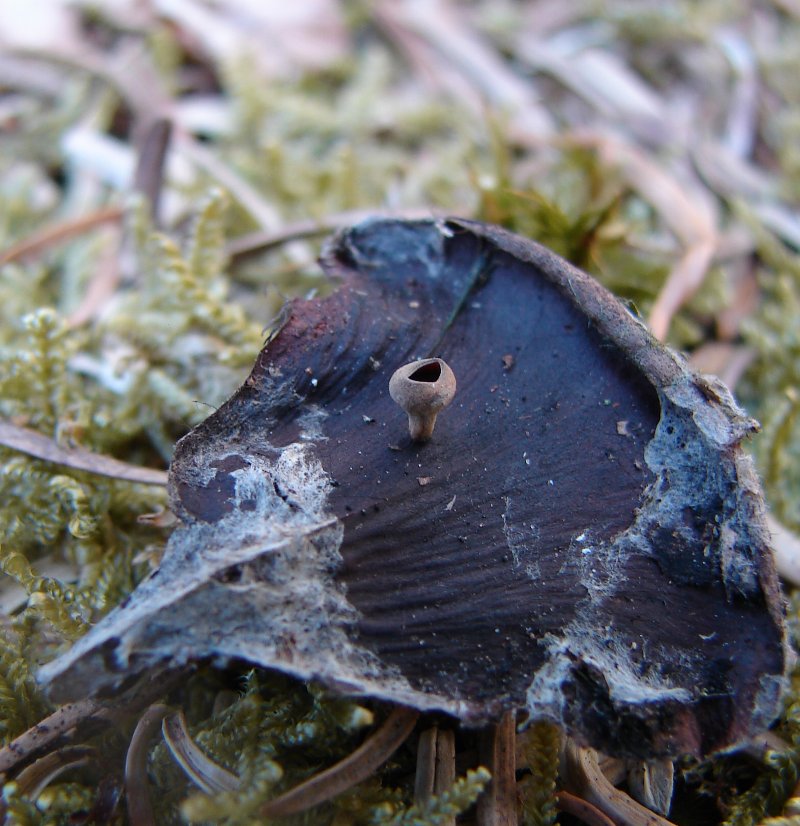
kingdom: Fungi
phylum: Ascomycota
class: Leotiomycetes
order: Helotiales
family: Sclerotiniaceae
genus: Ciboria
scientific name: Ciboria rufofusca
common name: kogleskæl-knoldskive
